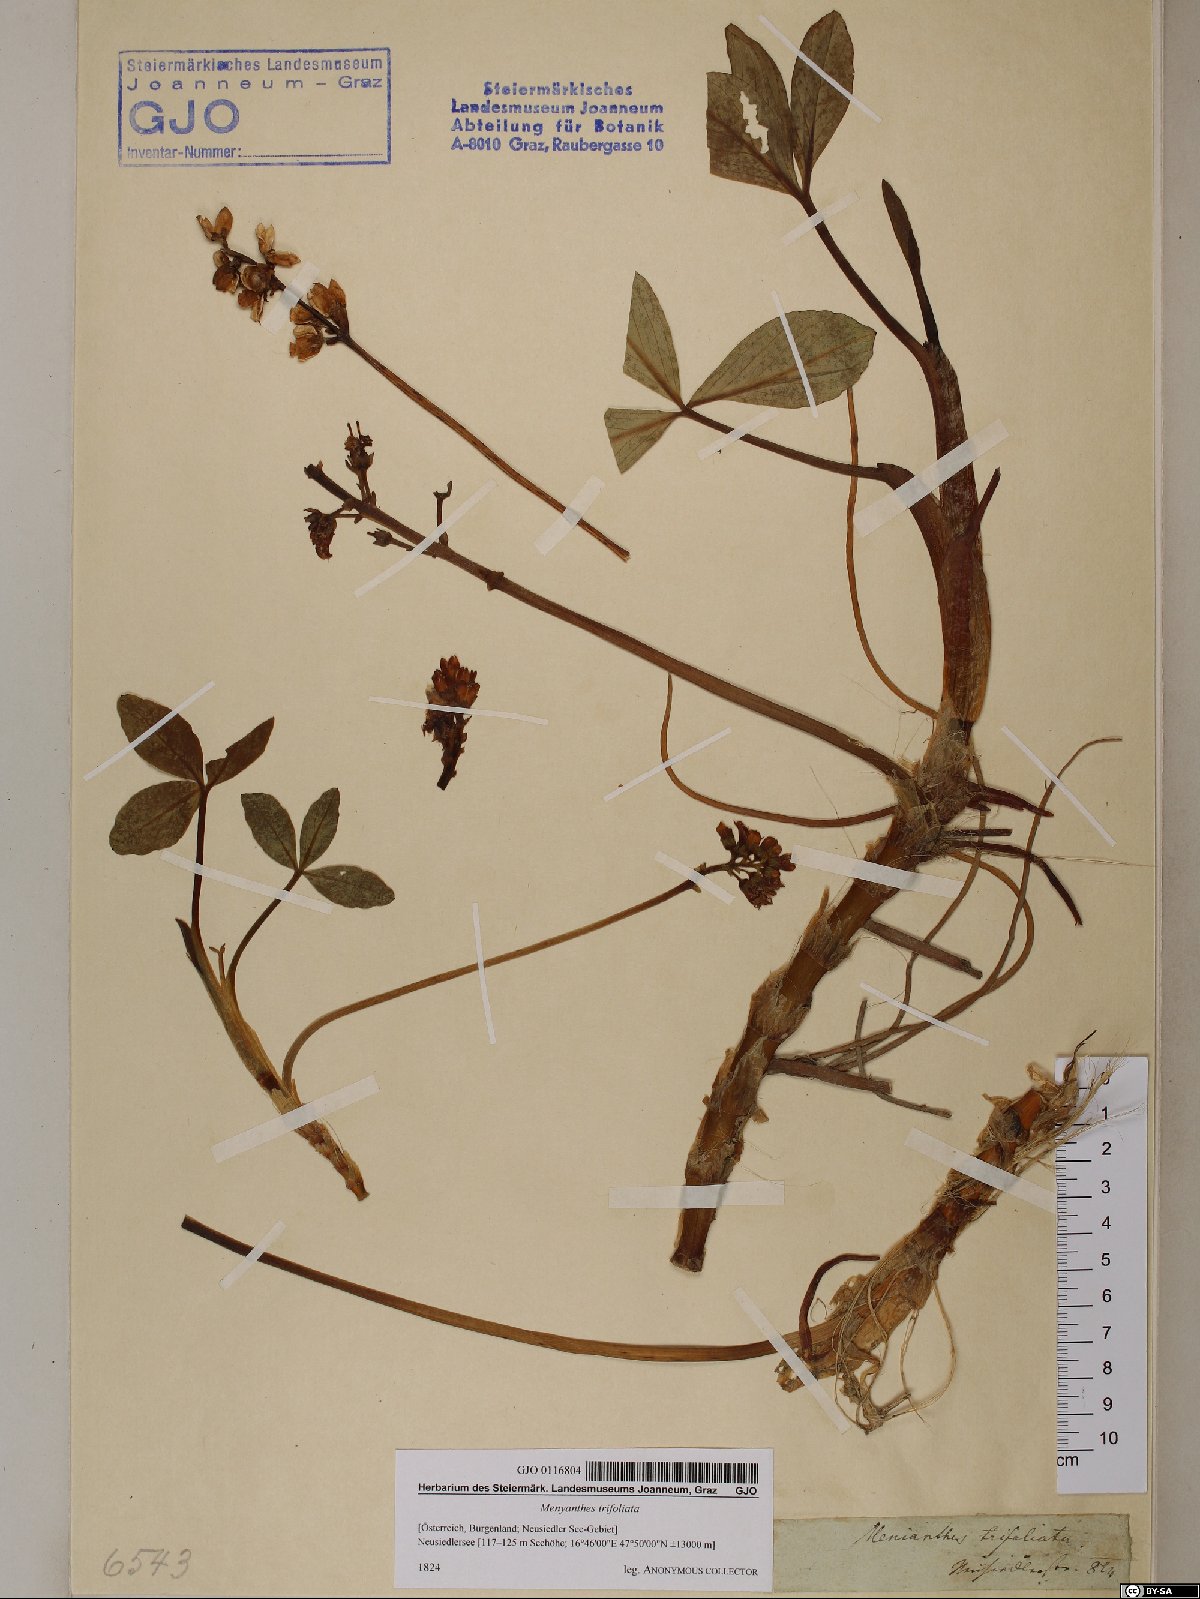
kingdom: Plantae
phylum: Tracheophyta
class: Magnoliopsida
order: Asterales
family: Menyanthaceae
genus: Menyanthes
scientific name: Menyanthes trifoliata
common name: Bogbean
